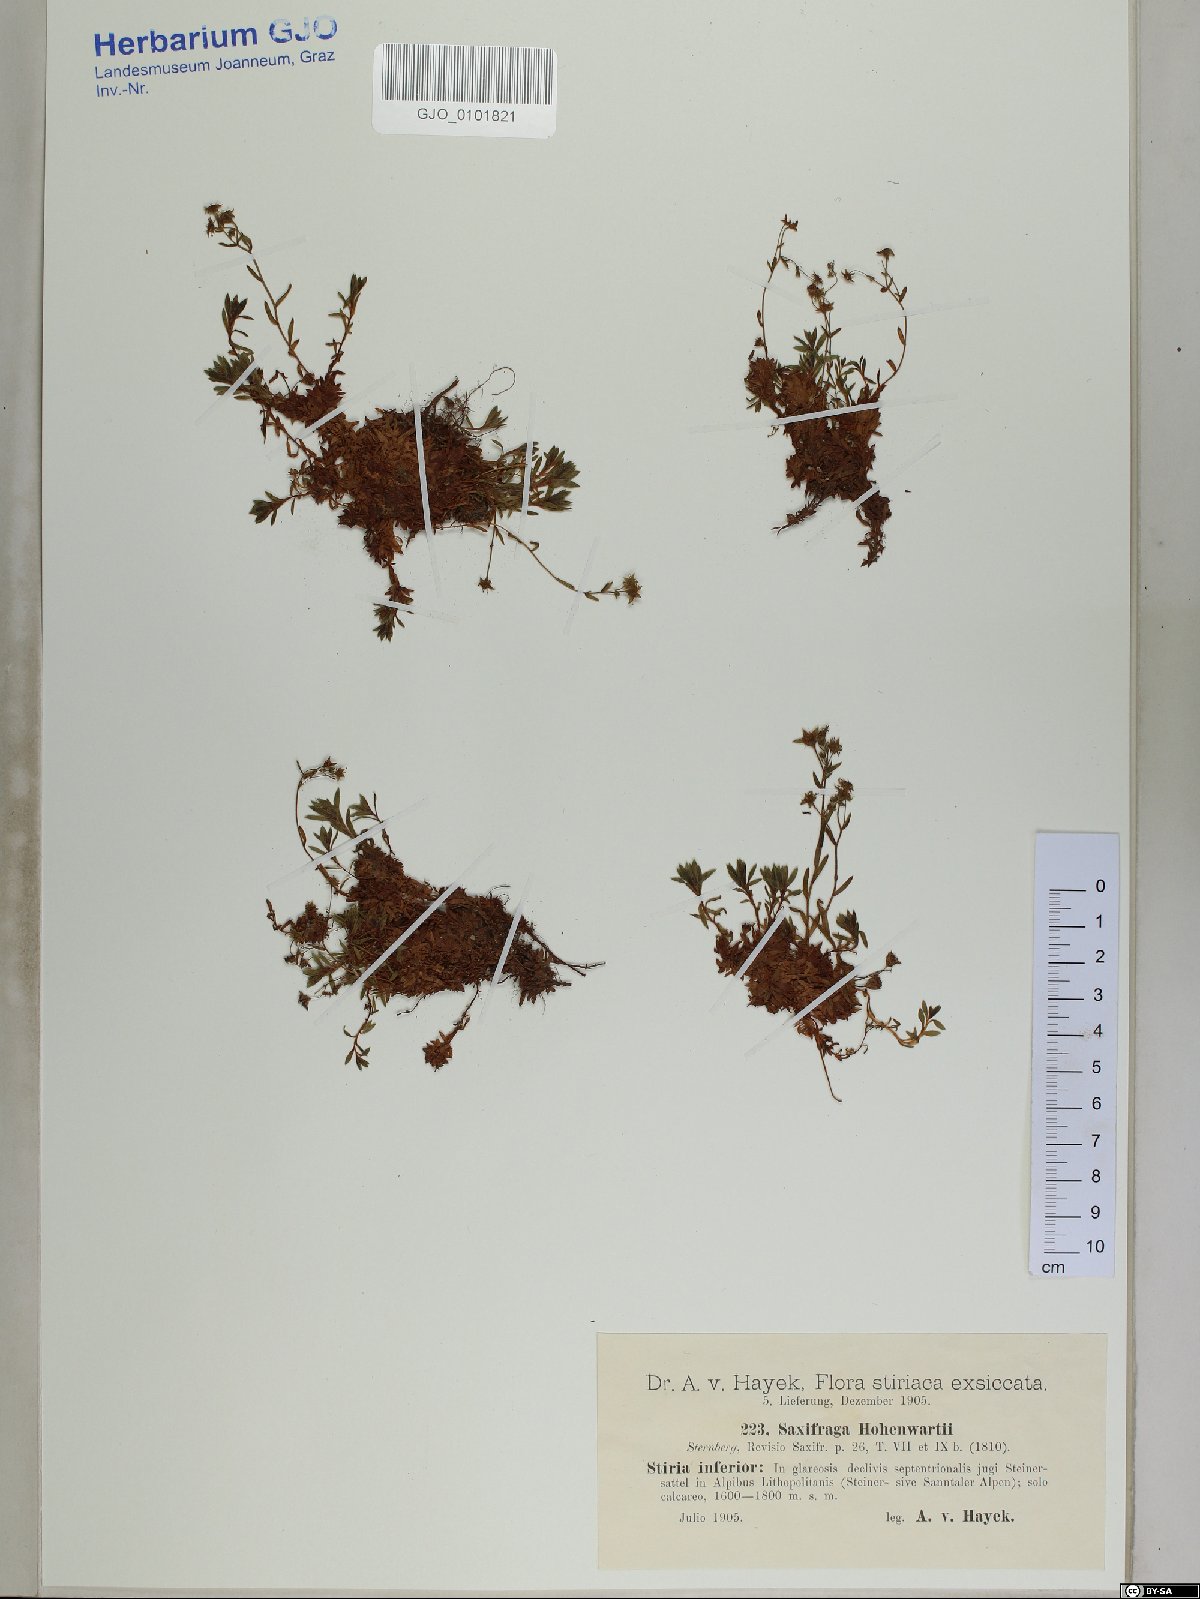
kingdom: Plantae
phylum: Tracheophyta
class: Magnoliopsida
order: Saxifragales
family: Saxifragaceae
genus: Saxifraga
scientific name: Saxifraga hohenwartii
